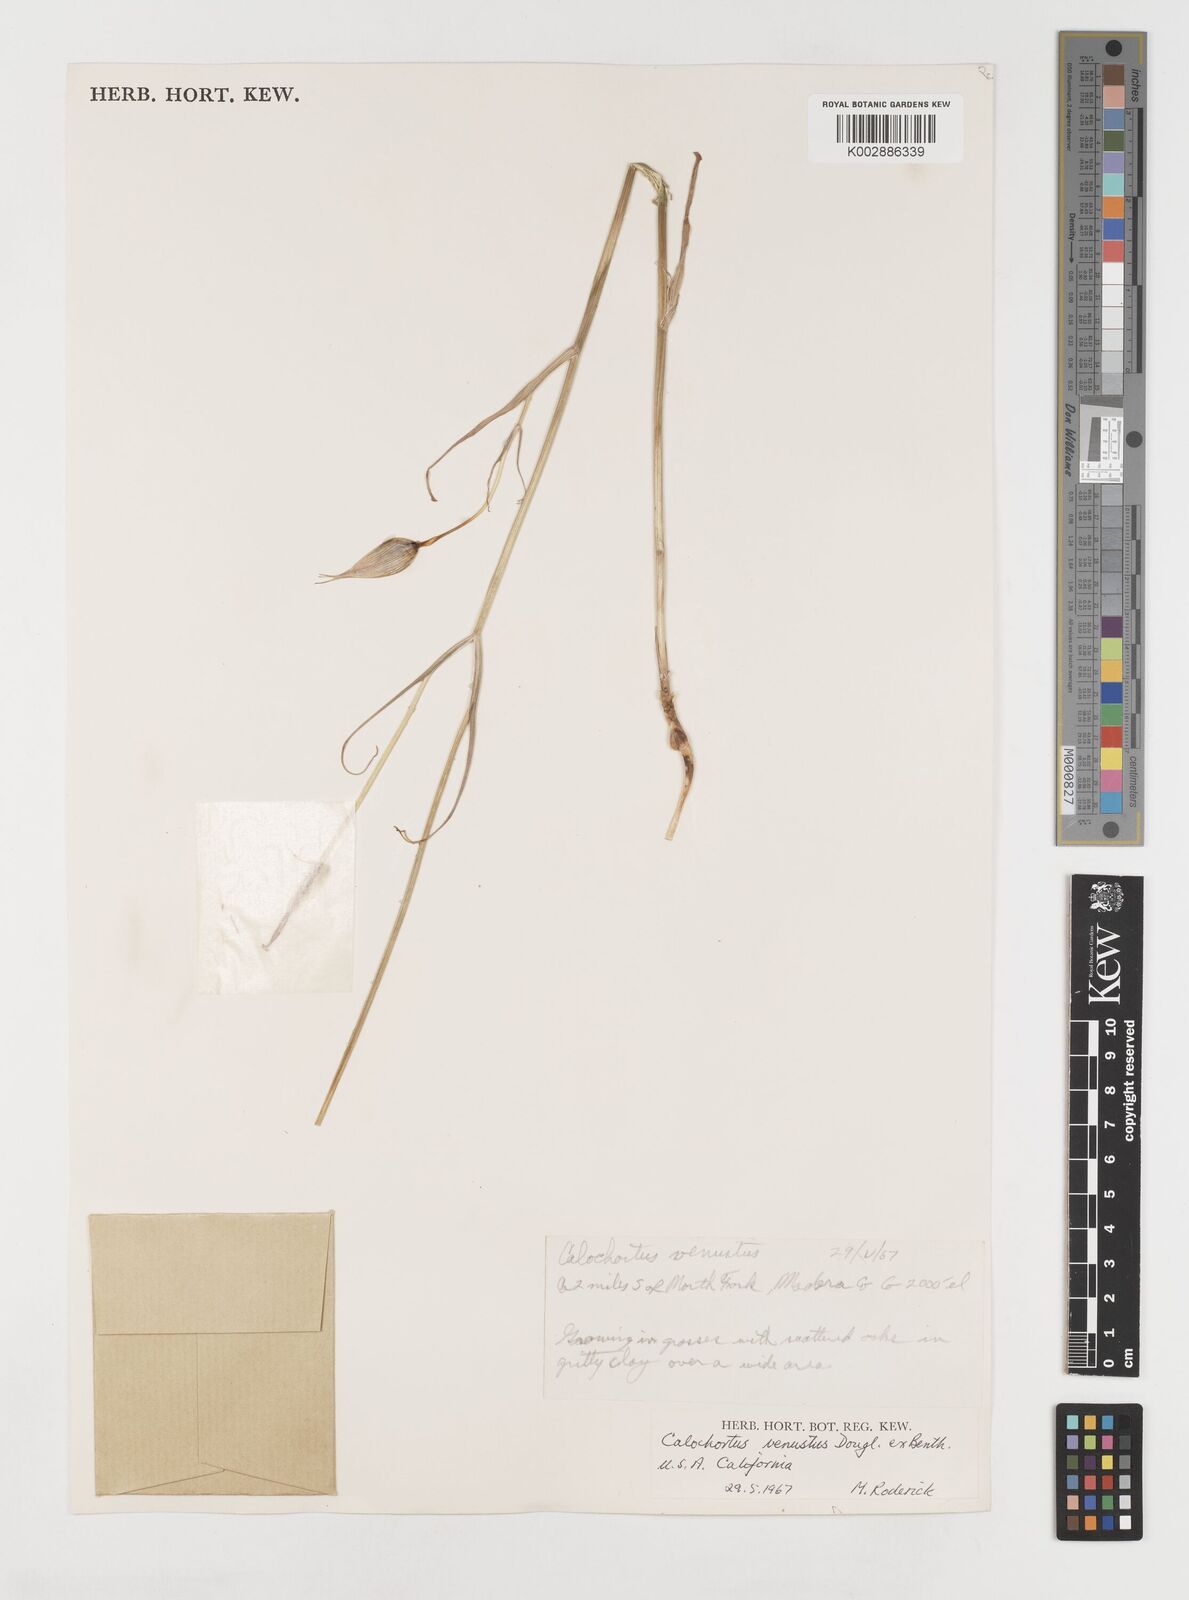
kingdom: Plantae
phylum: Tracheophyta
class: Liliopsida
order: Liliales
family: Liliaceae
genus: Calochortus
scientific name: Calochortus venustus
